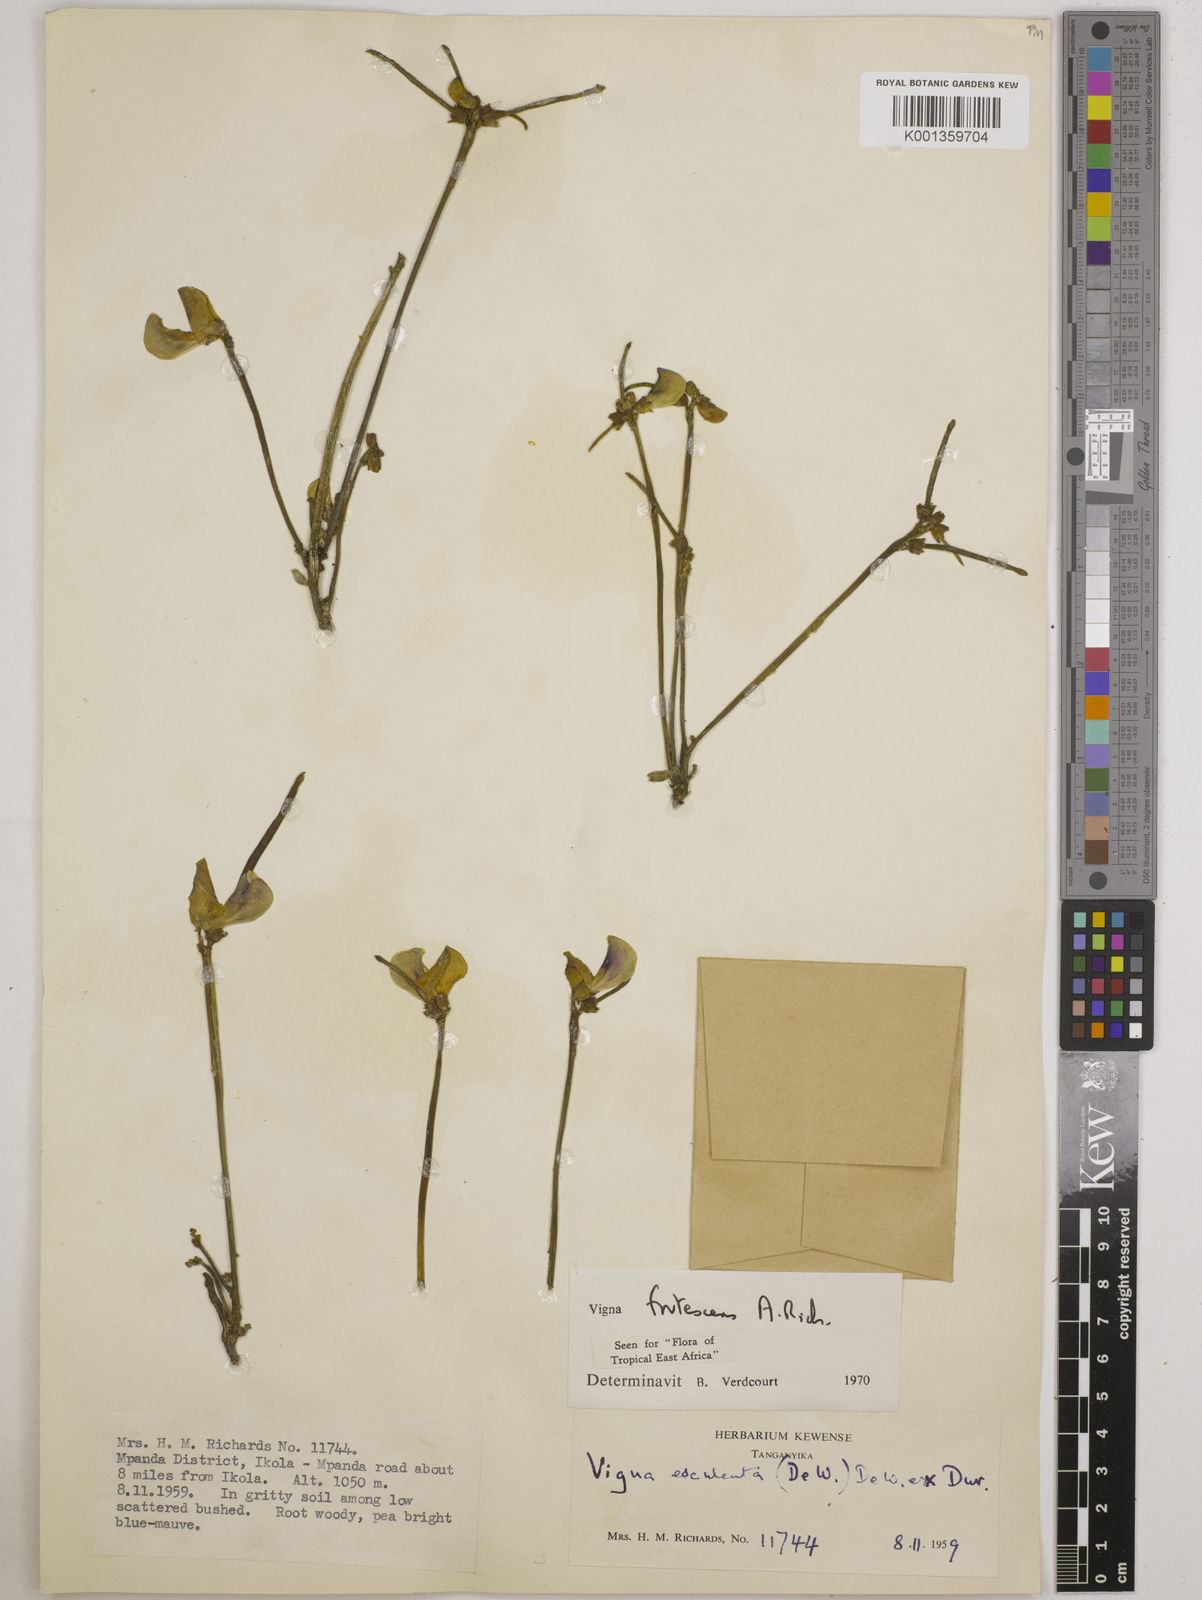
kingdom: Plantae
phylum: Tracheophyta
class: Magnoliopsida
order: Fabales
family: Fabaceae
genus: Vigna
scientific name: Vigna frutescens
